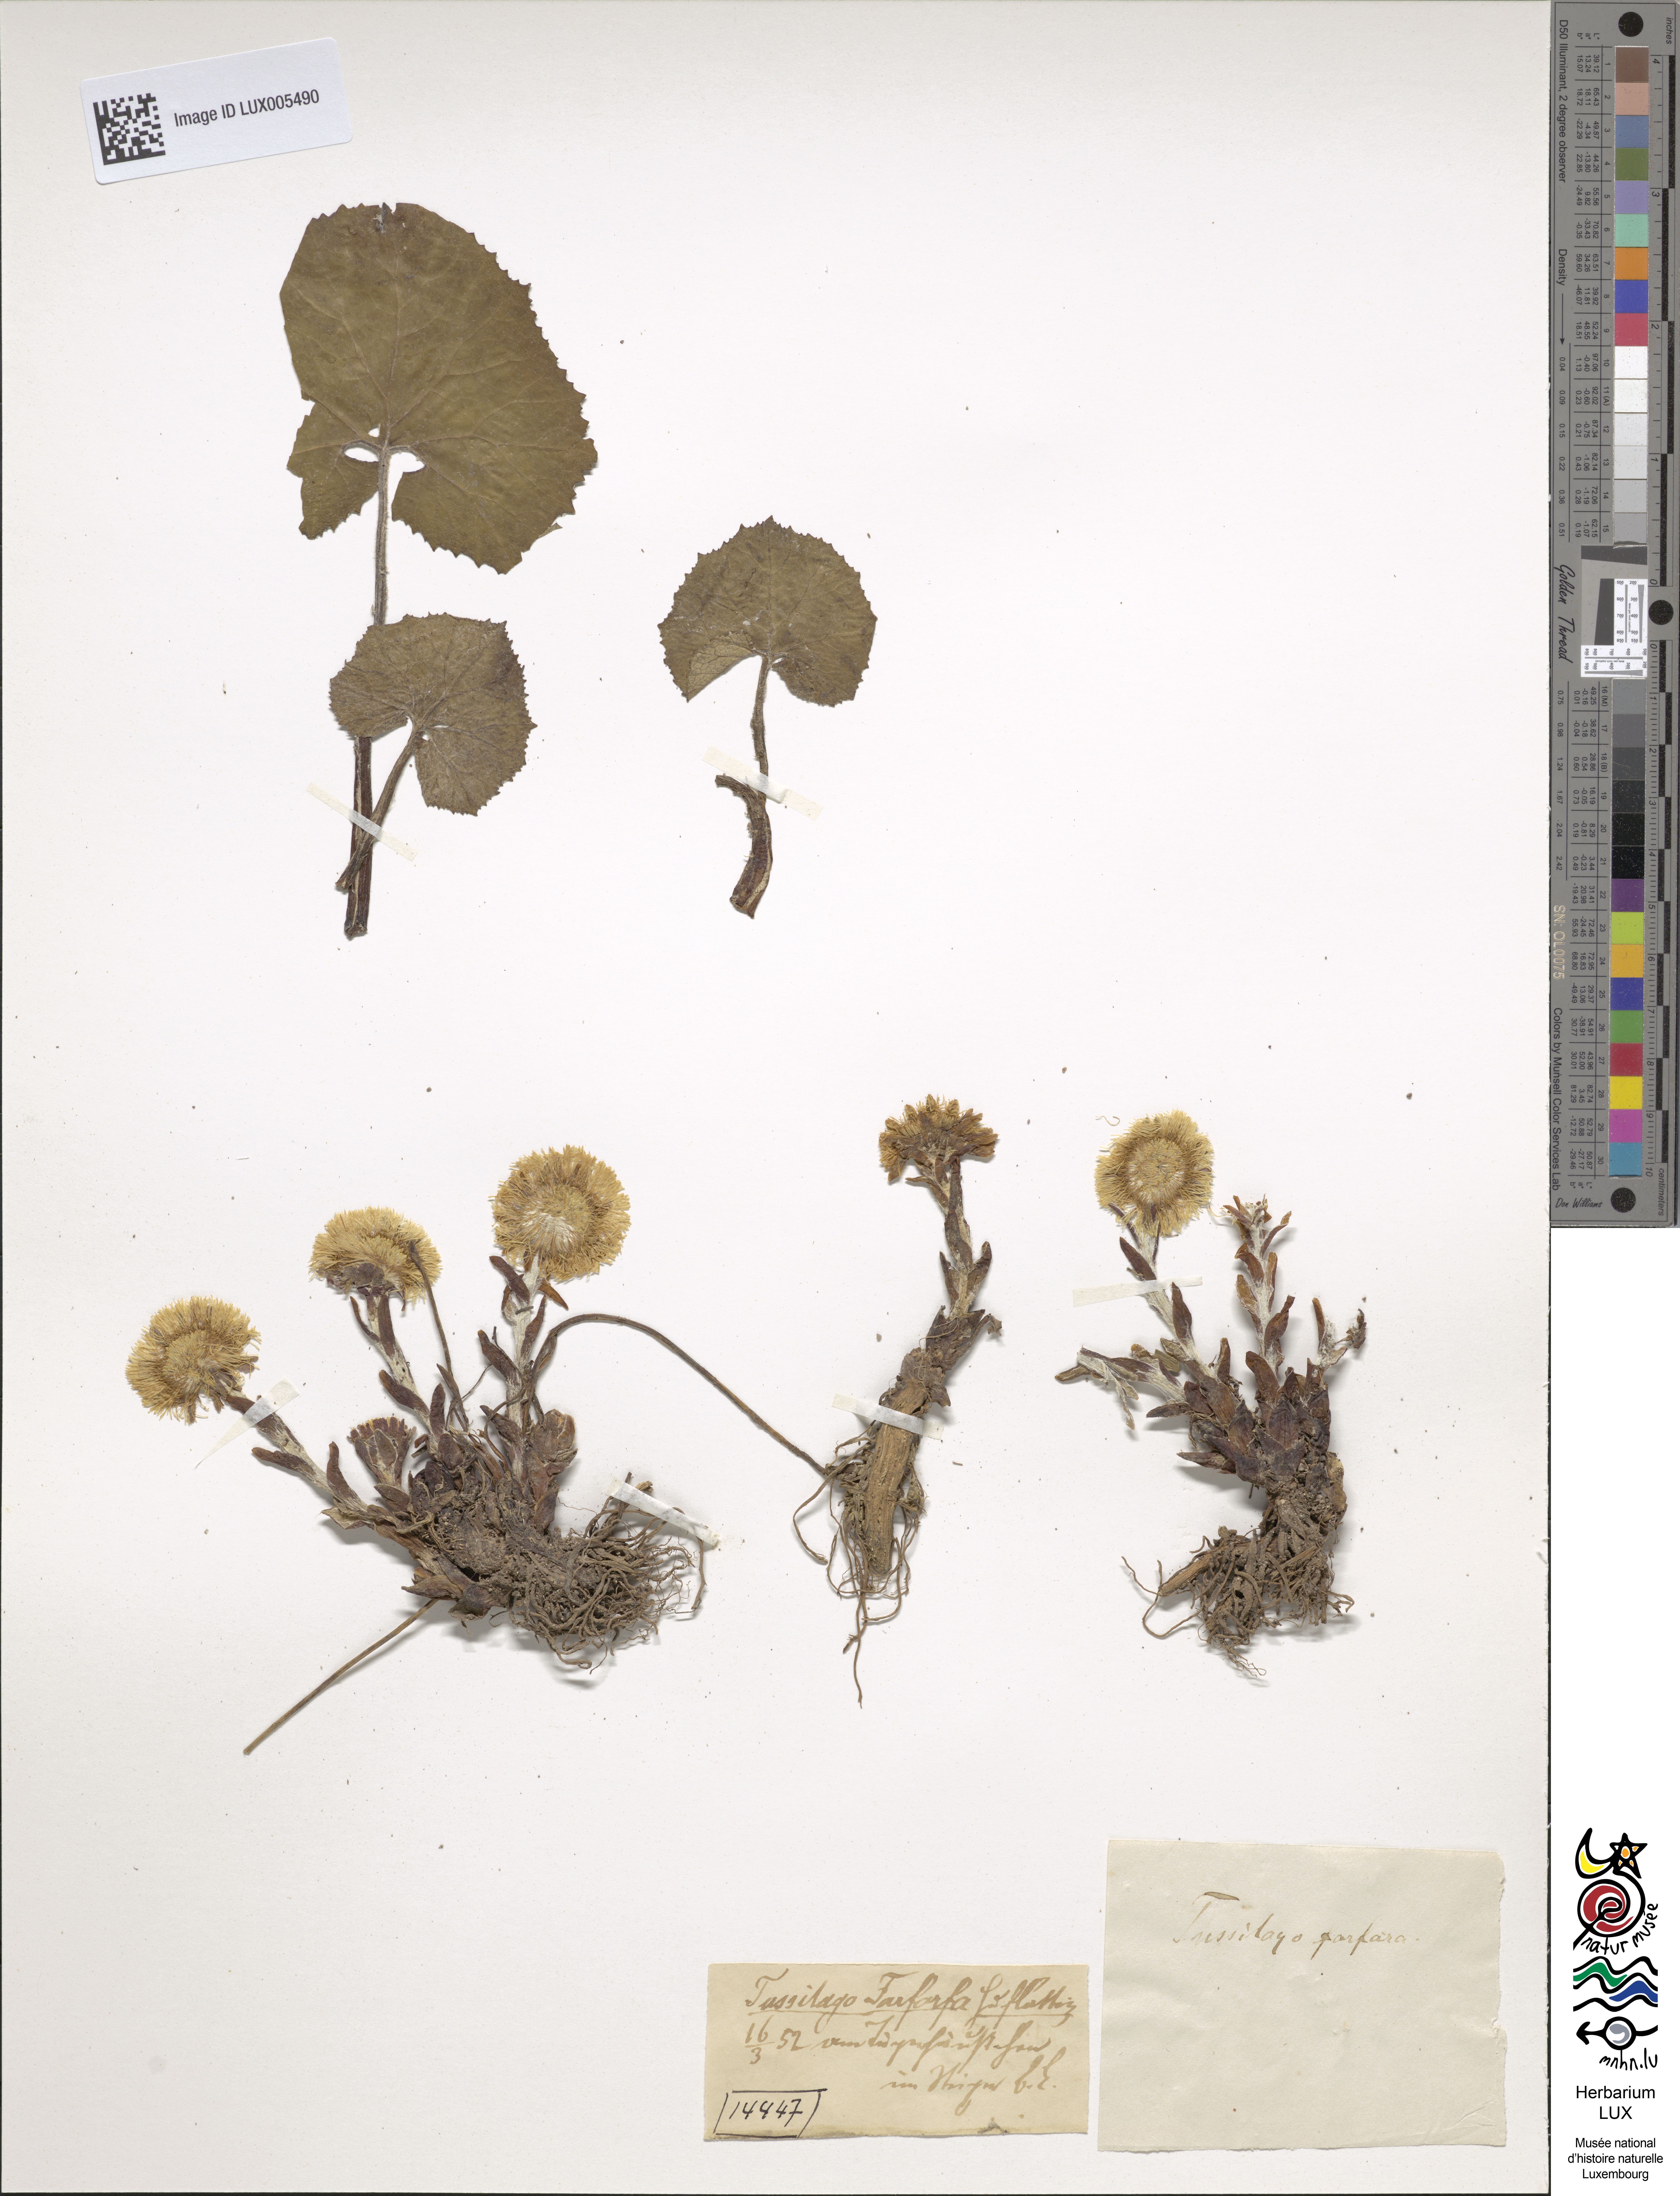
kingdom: Plantae
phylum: Tracheophyta
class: Magnoliopsida
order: Asterales
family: Asteraceae
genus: Tussilago
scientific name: Tussilago farfara
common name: Coltsfoot
